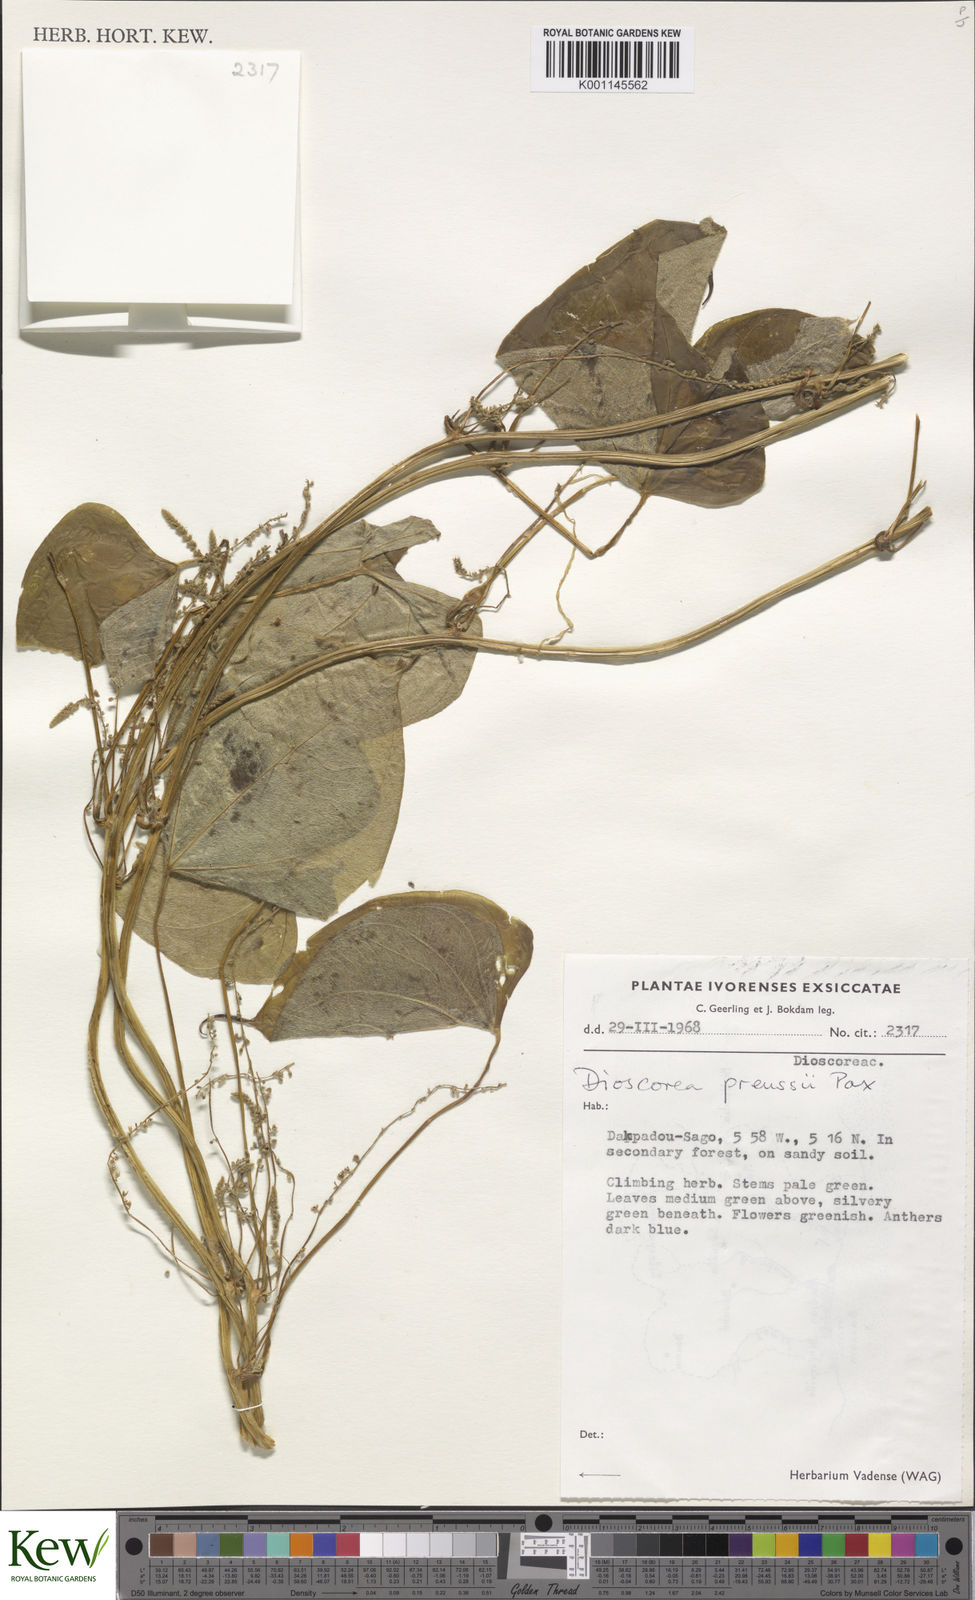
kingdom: Plantae
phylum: Tracheophyta
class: Liliopsida
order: Dioscoreales
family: Dioscoreaceae
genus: Dioscorea
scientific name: Dioscorea preussii
